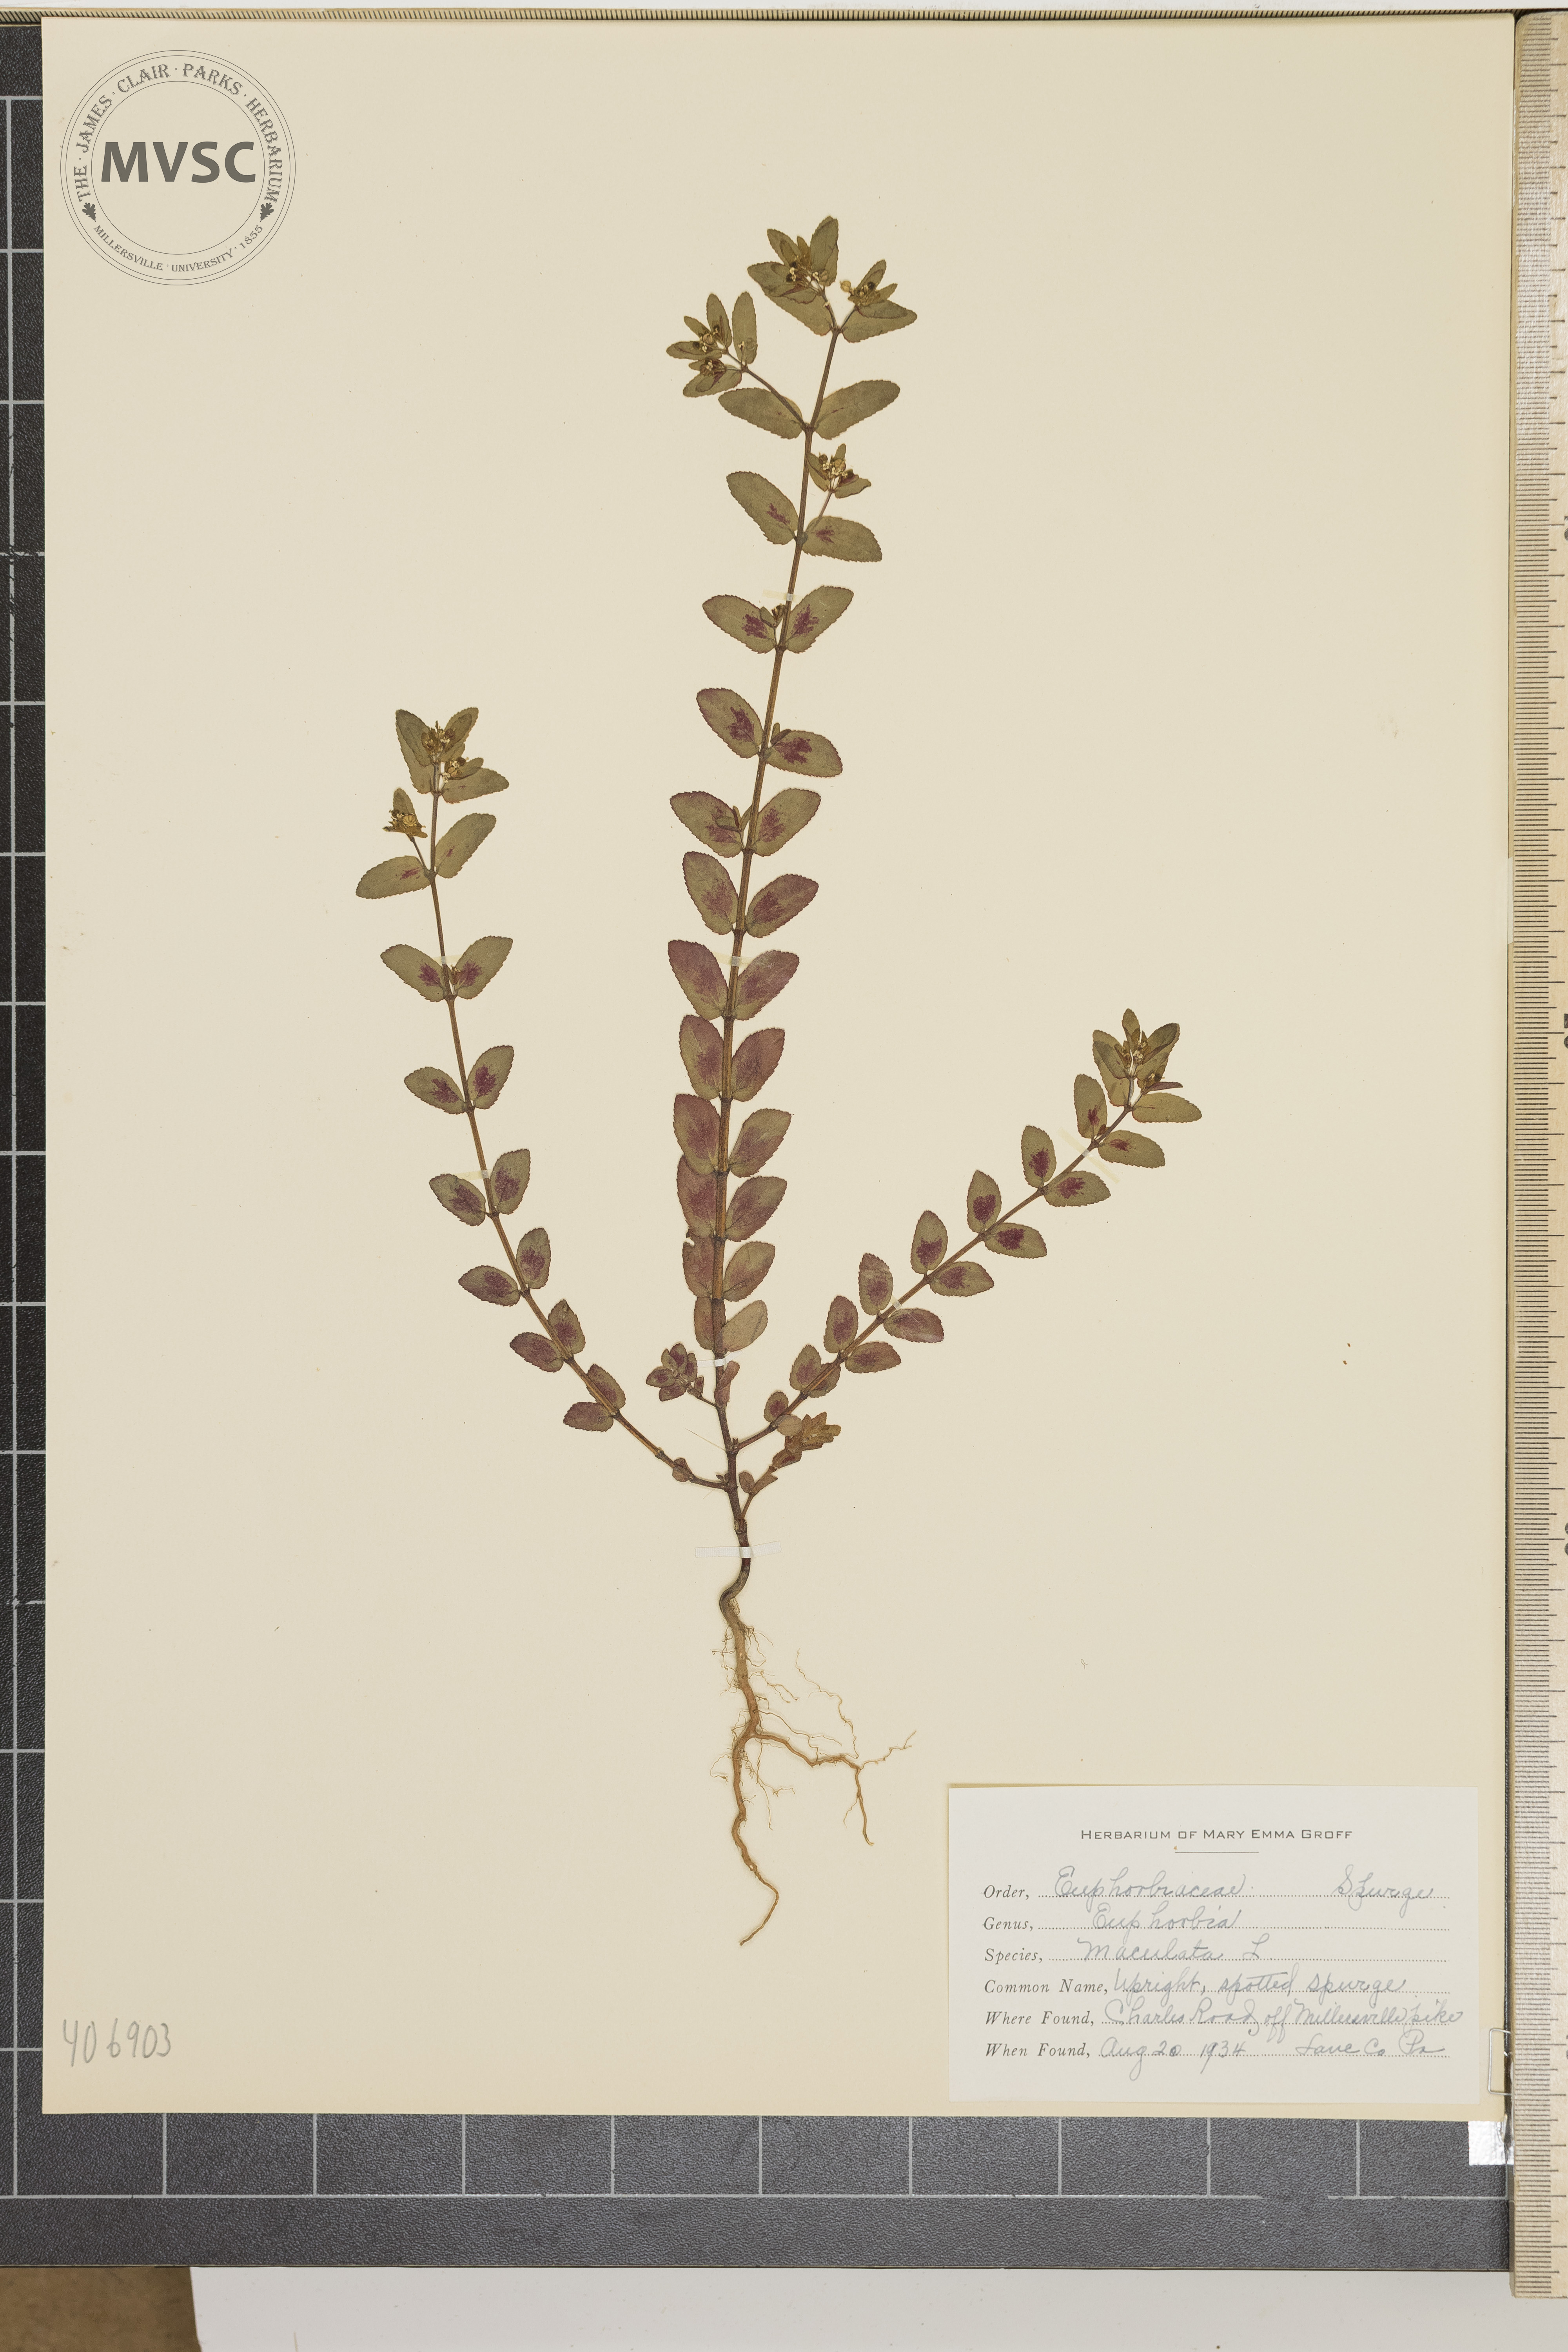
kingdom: Plantae
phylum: Tracheophyta
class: Magnoliopsida
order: Malpighiales
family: Euphorbiaceae
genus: Euphorbia
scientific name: Euphorbia maculata
